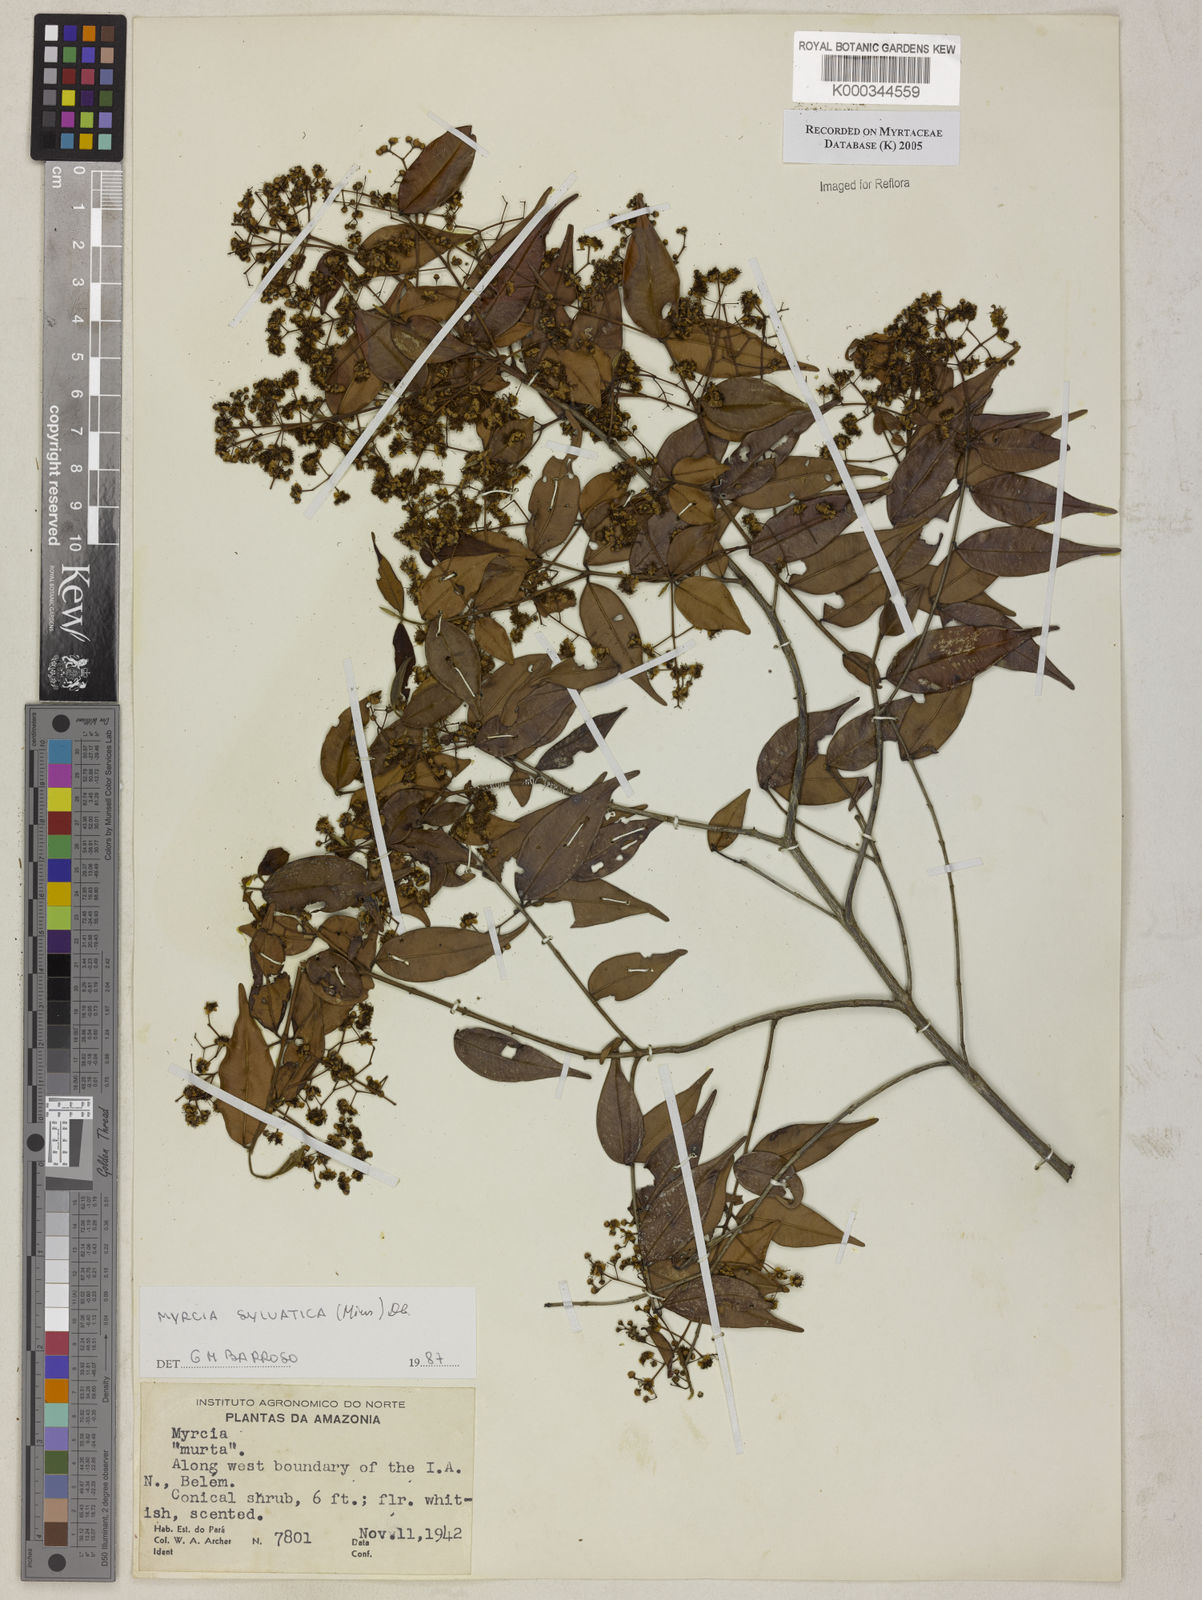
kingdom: Plantae
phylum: Tracheophyta
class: Magnoliopsida
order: Myrtales
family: Myrtaceae
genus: Myrcia
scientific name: Myrcia sylvatica
